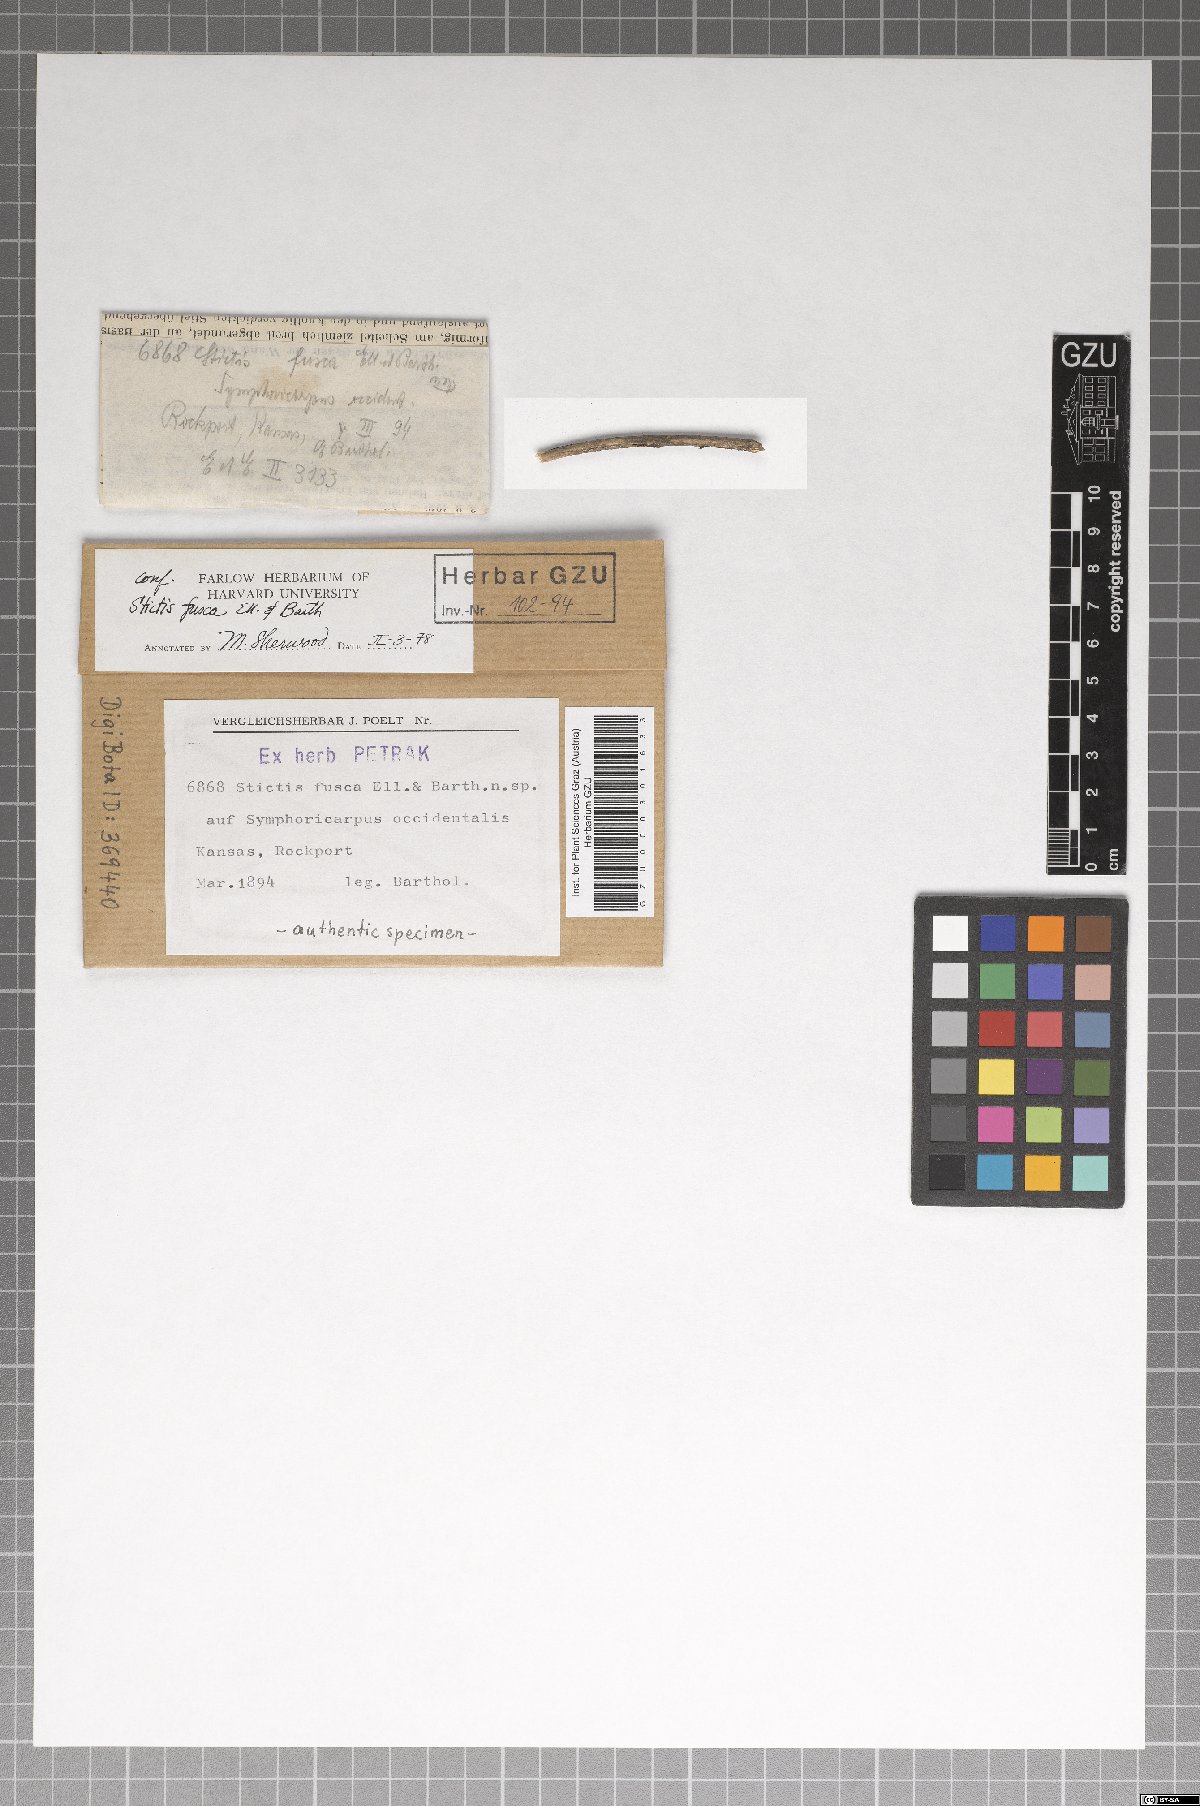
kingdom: Fungi
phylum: Ascomycota
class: Lecanoromycetes
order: Ostropales
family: Stictidaceae
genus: Stictis
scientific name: Stictis fuscella
